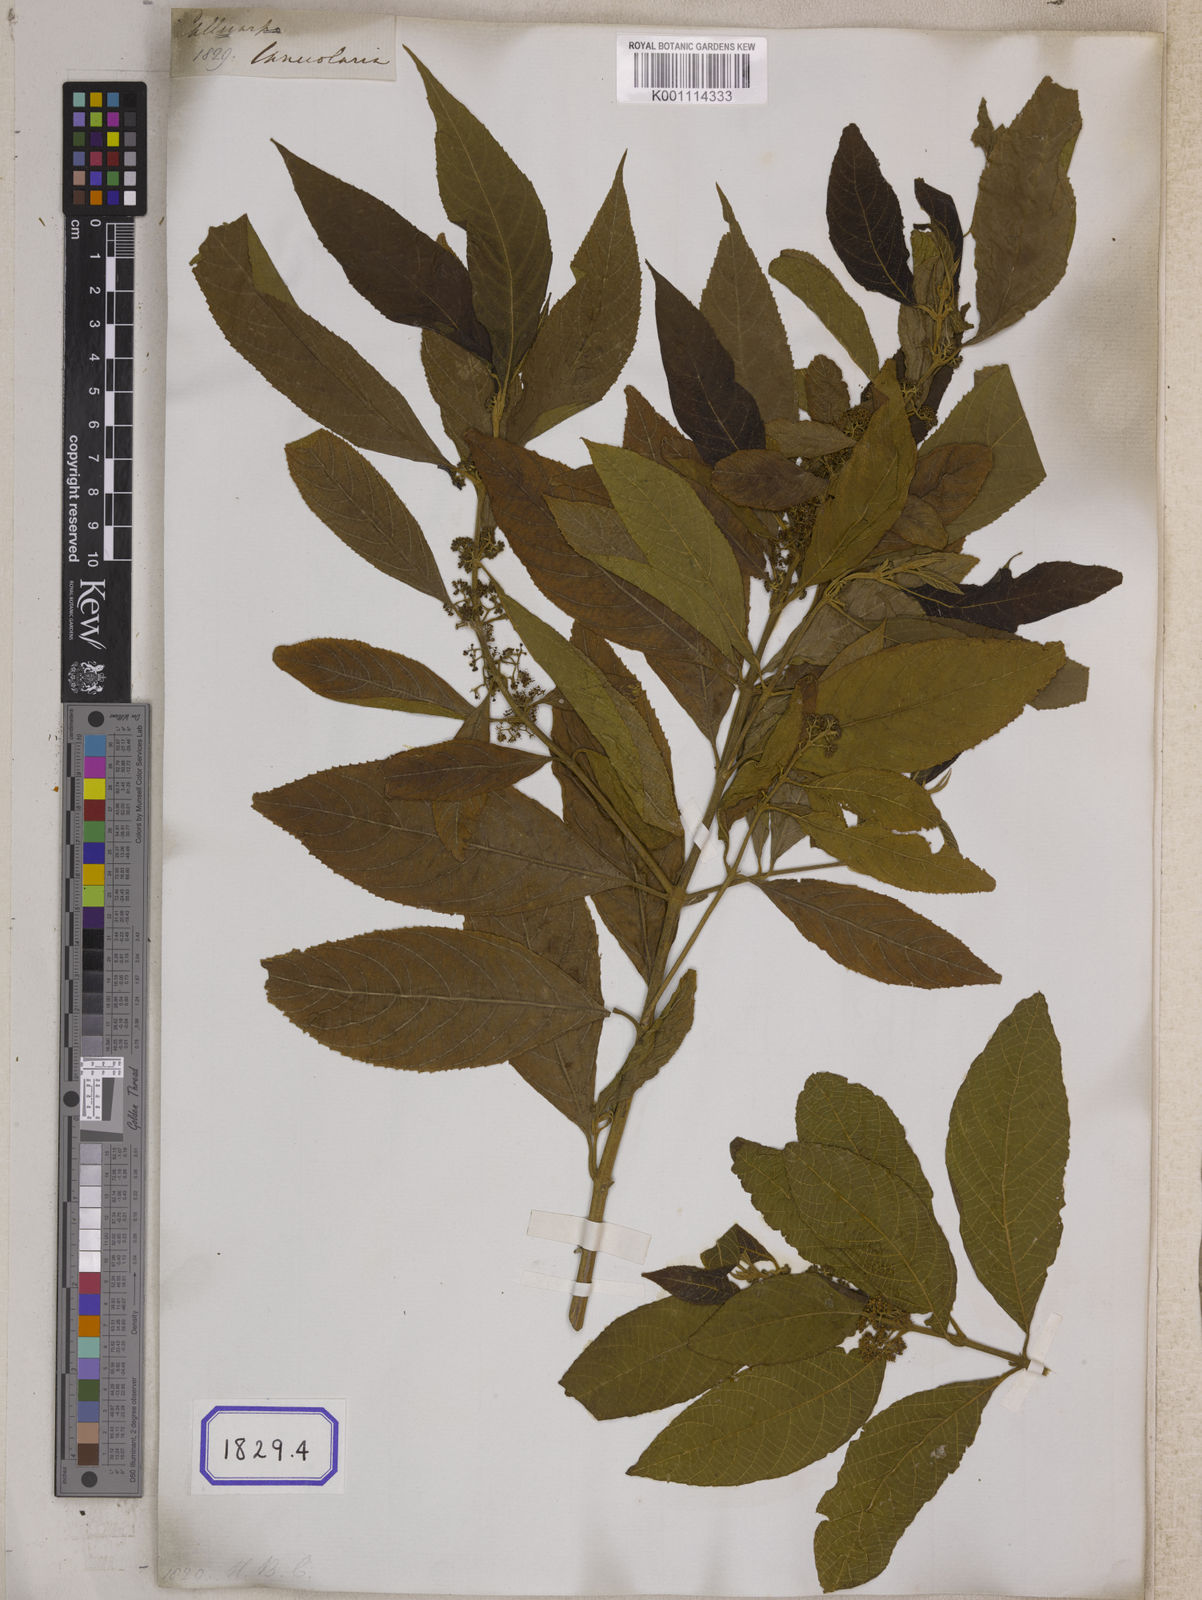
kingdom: Plantae
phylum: Tracheophyta
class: Magnoliopsida
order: Lamiales
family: Lamiaceae
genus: Callicarpa
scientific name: Callicarpa
